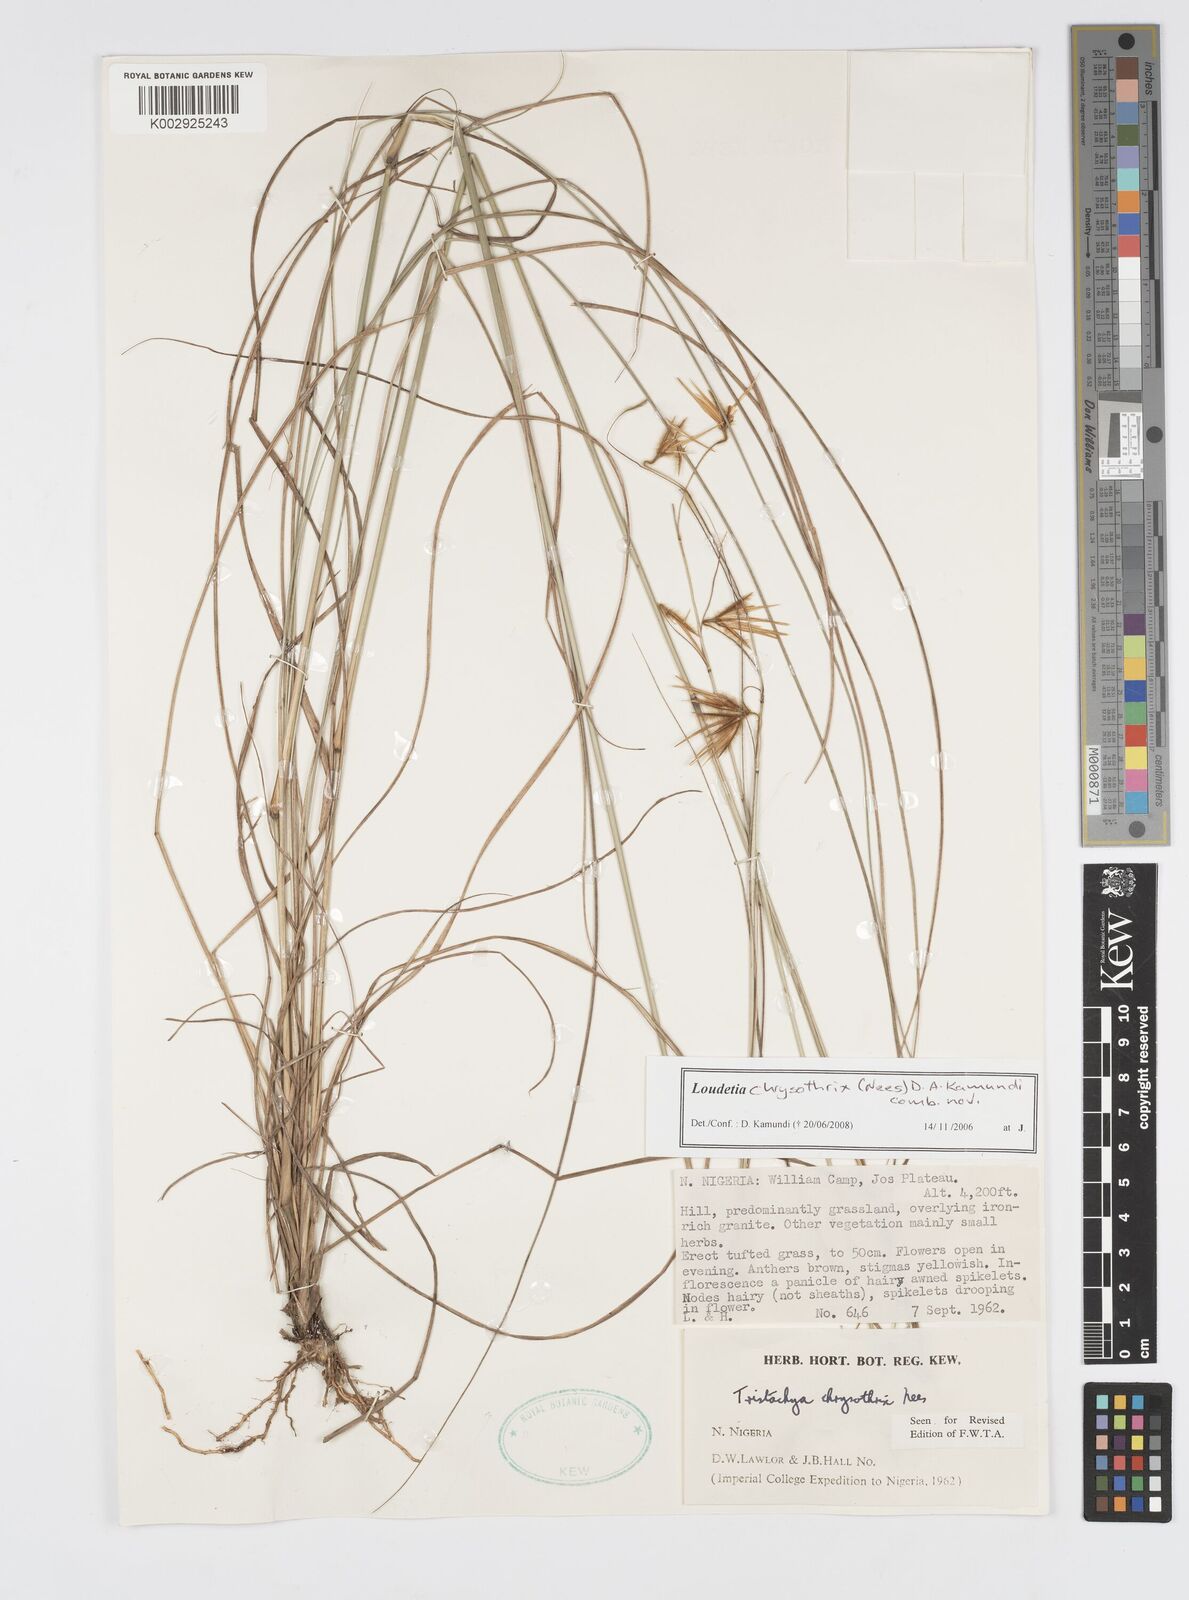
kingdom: Plantae
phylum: Tracheophyta
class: Liliopsida
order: Poales
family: Poaceae
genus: Loudetiopsis
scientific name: Loudetiopsis chrysothrix
